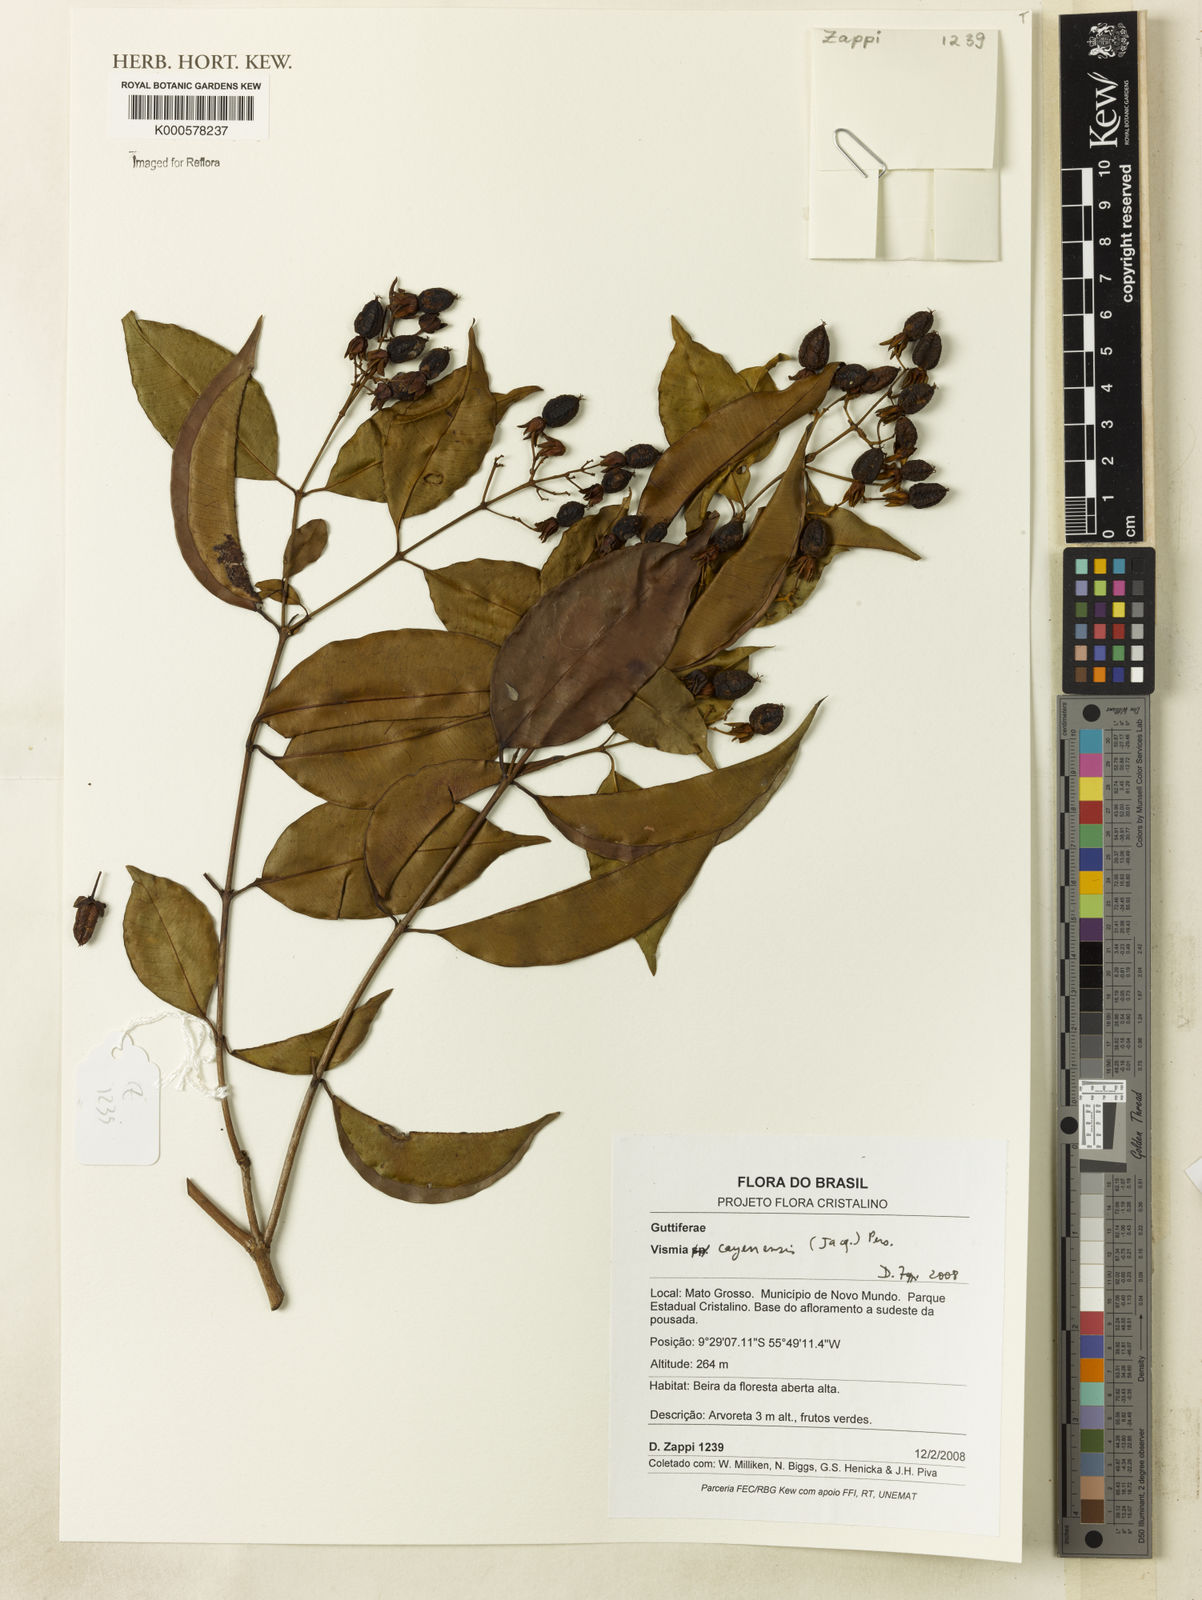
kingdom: Plantae
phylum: Tracheophyta
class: Magnoliopsida
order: Malpighiales
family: Hypericaceae
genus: Vismia
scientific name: Vismia cayennensis
